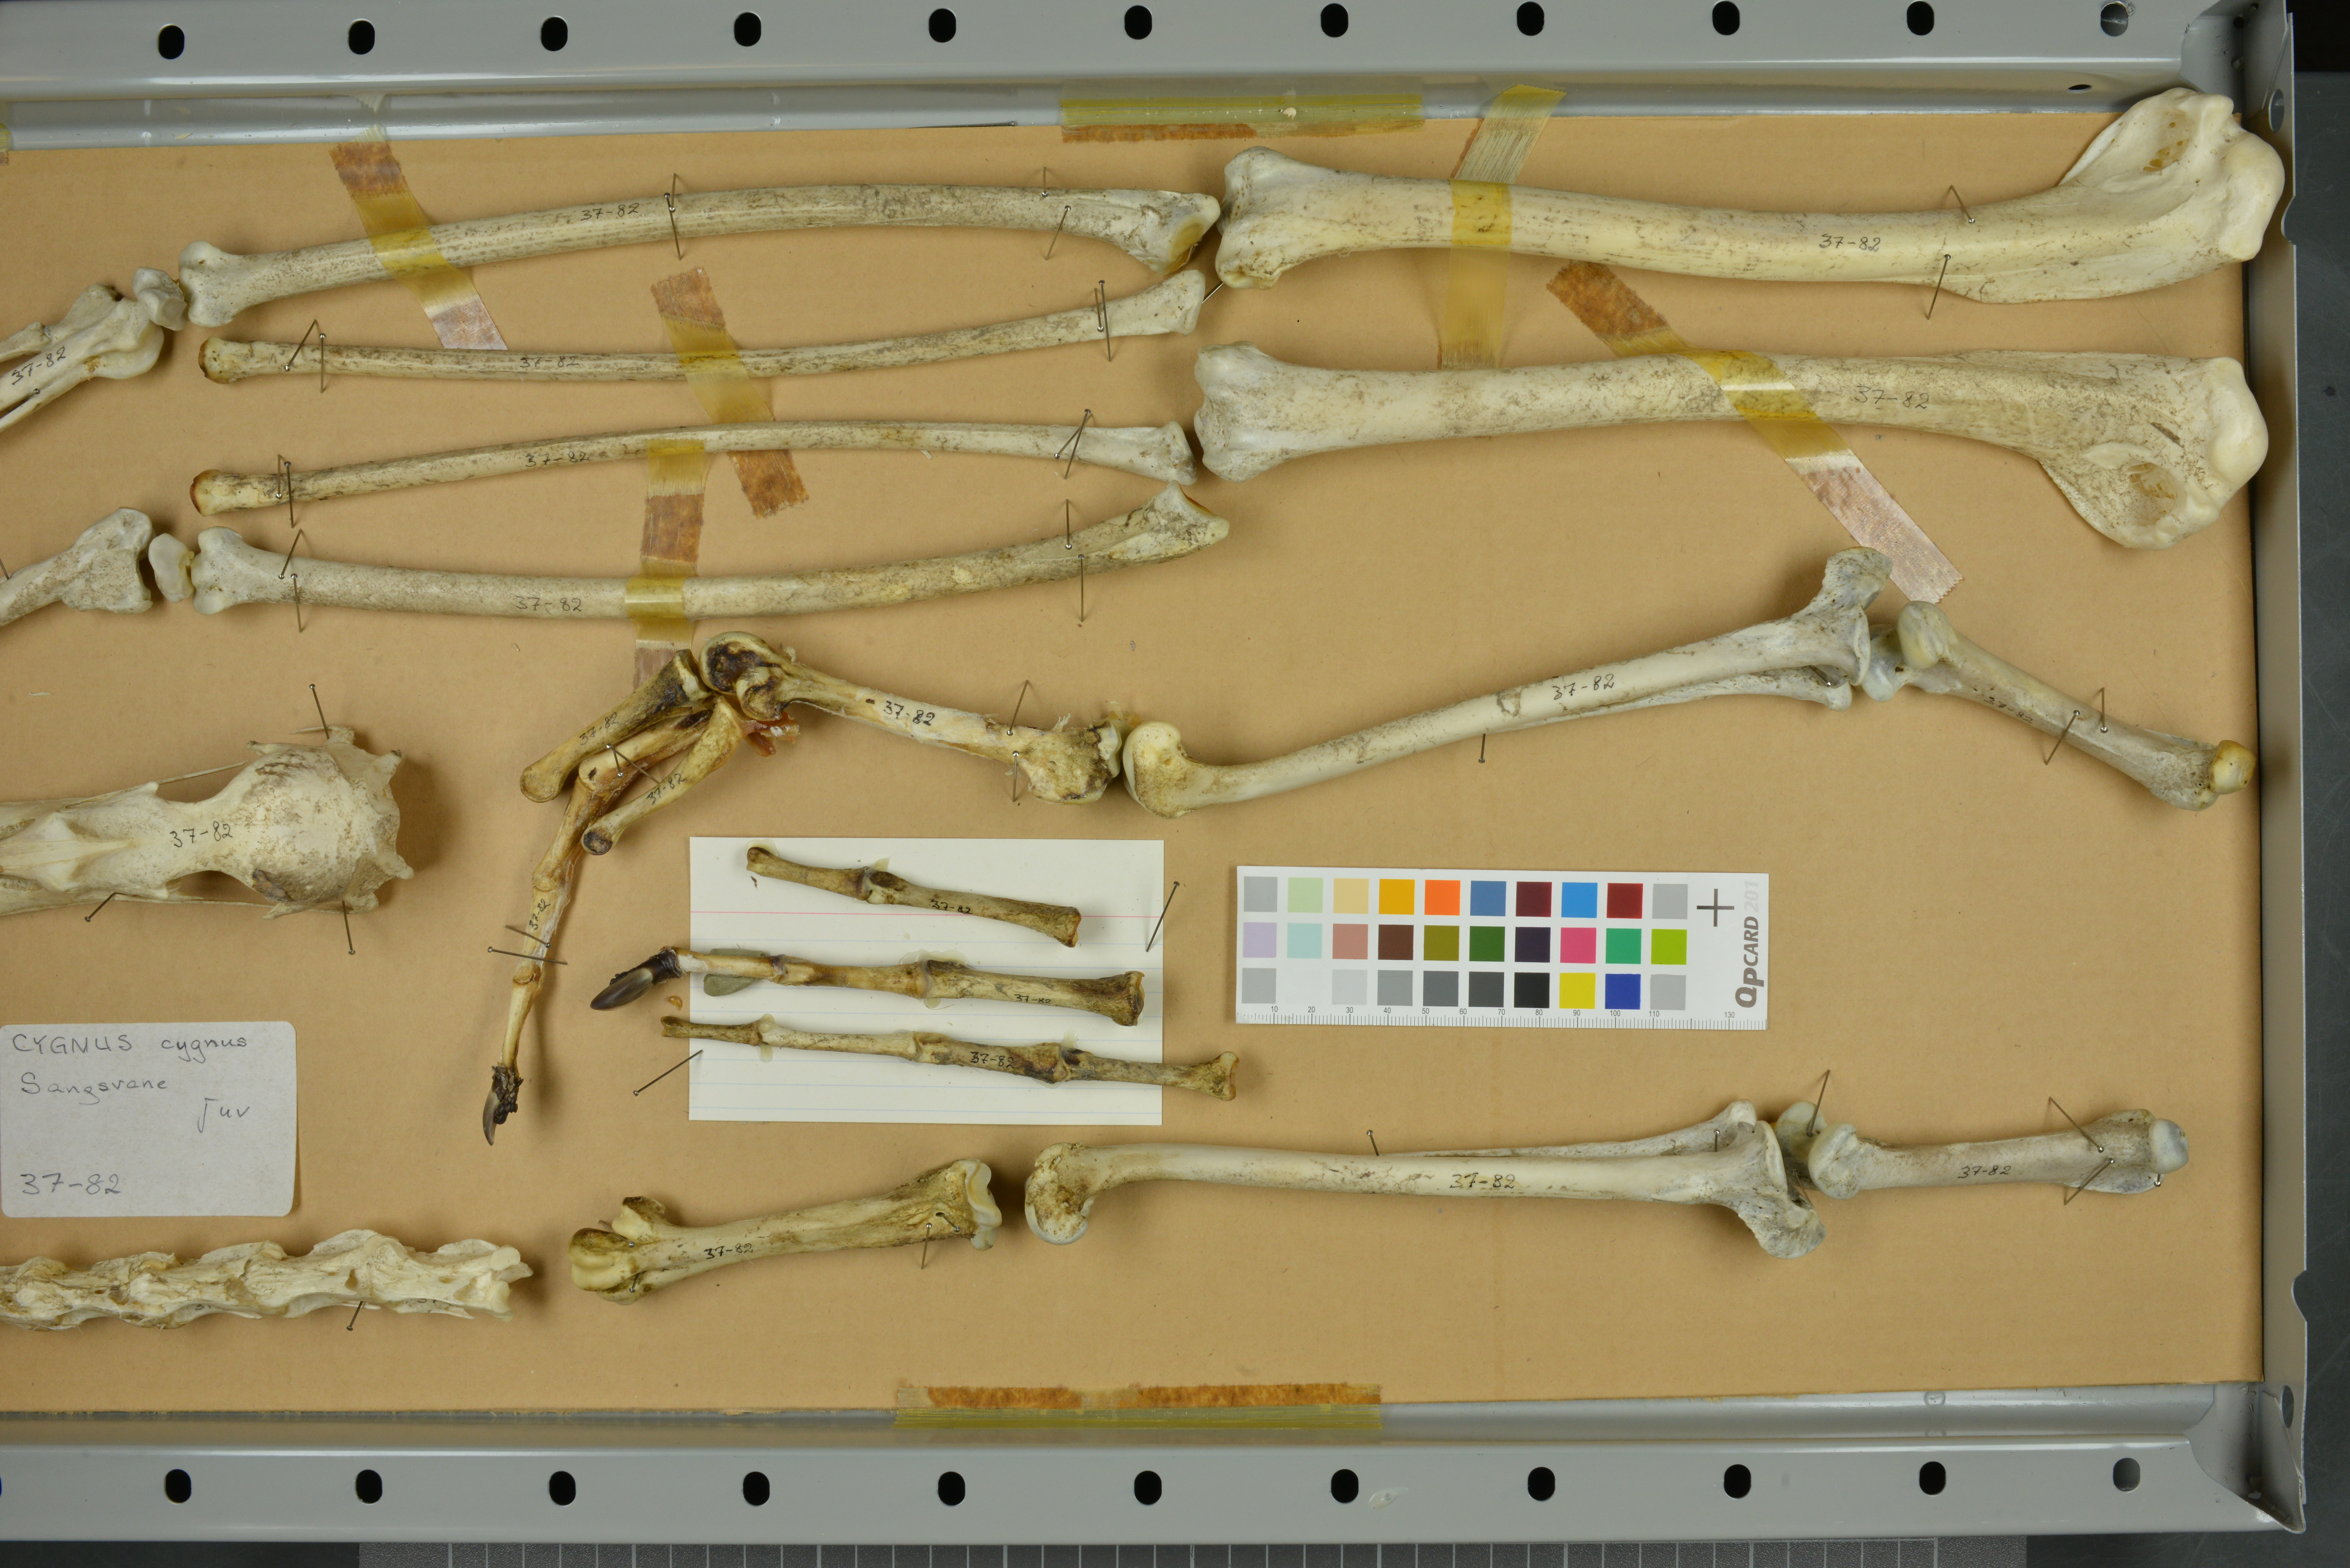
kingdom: Animalia
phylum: Chordata
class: Aves
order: Anseriformes
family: Anatidae
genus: Cygnus
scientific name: Cygnus cygnus
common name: Whooper swan
